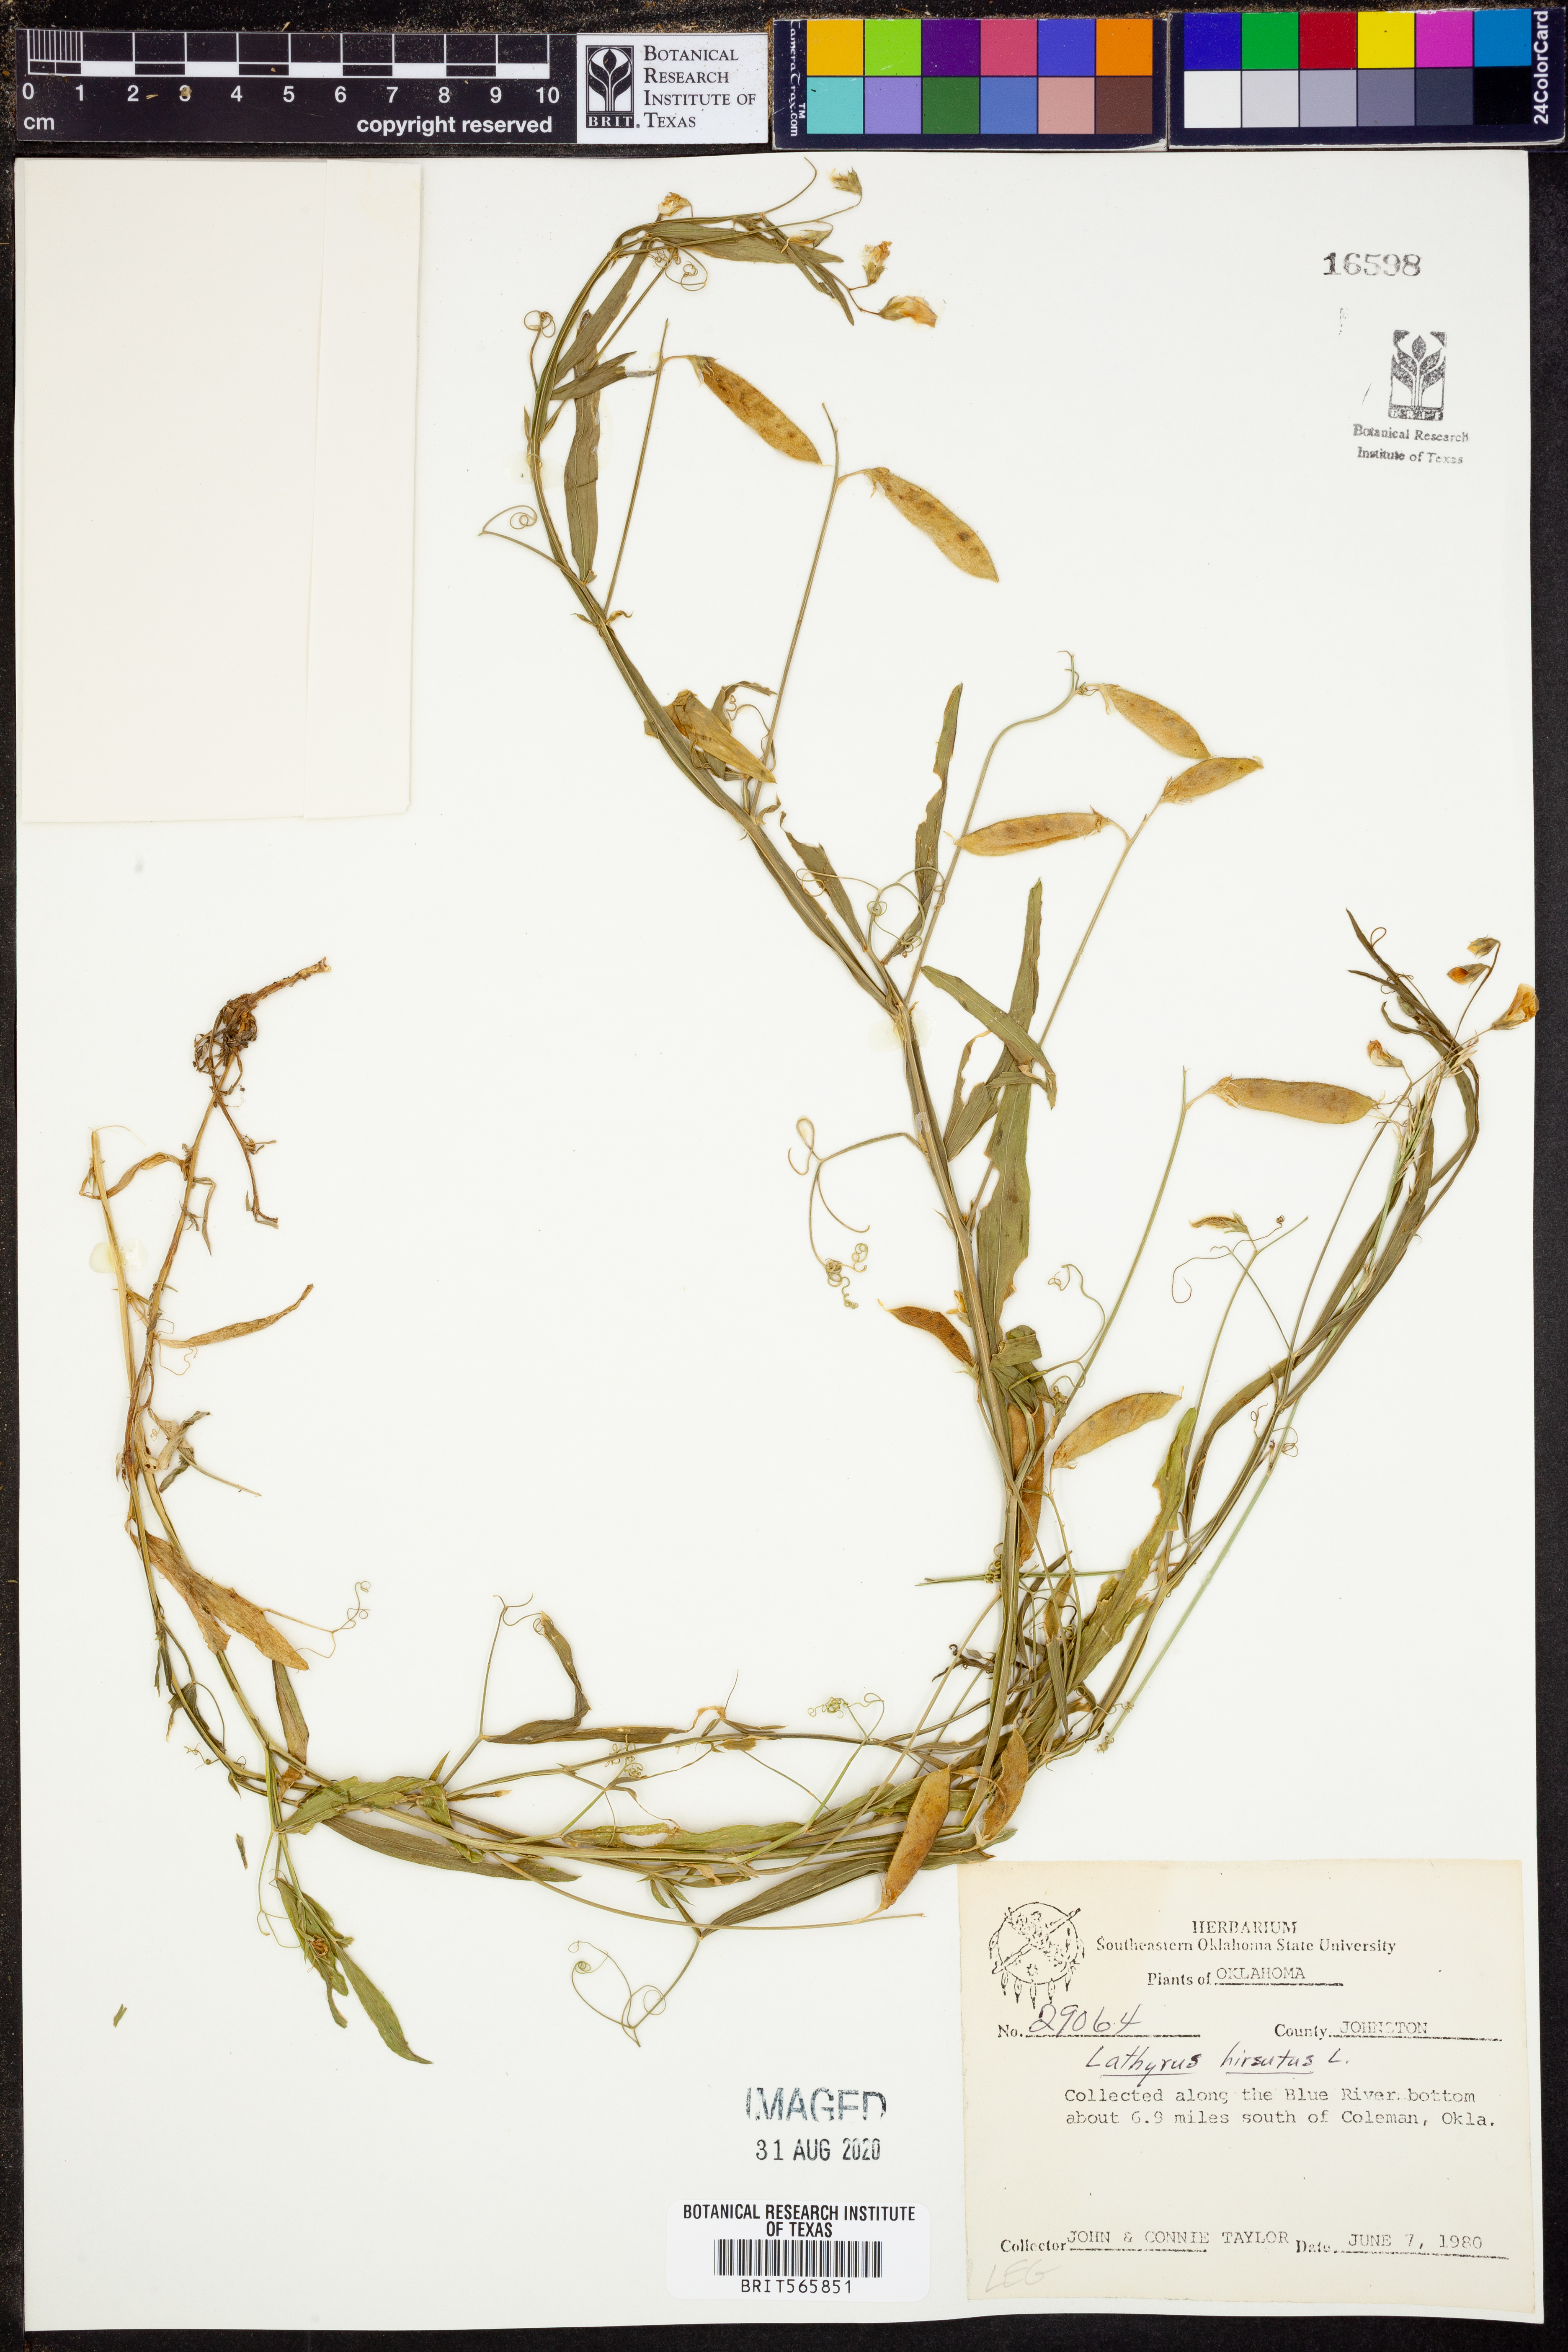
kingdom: Plantae
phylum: Tracheophyta
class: Magnoliopsida
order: Fabales
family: Fabaceae
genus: Lathyrus
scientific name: Lathyrus hirsutus
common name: Hairy vetchling
